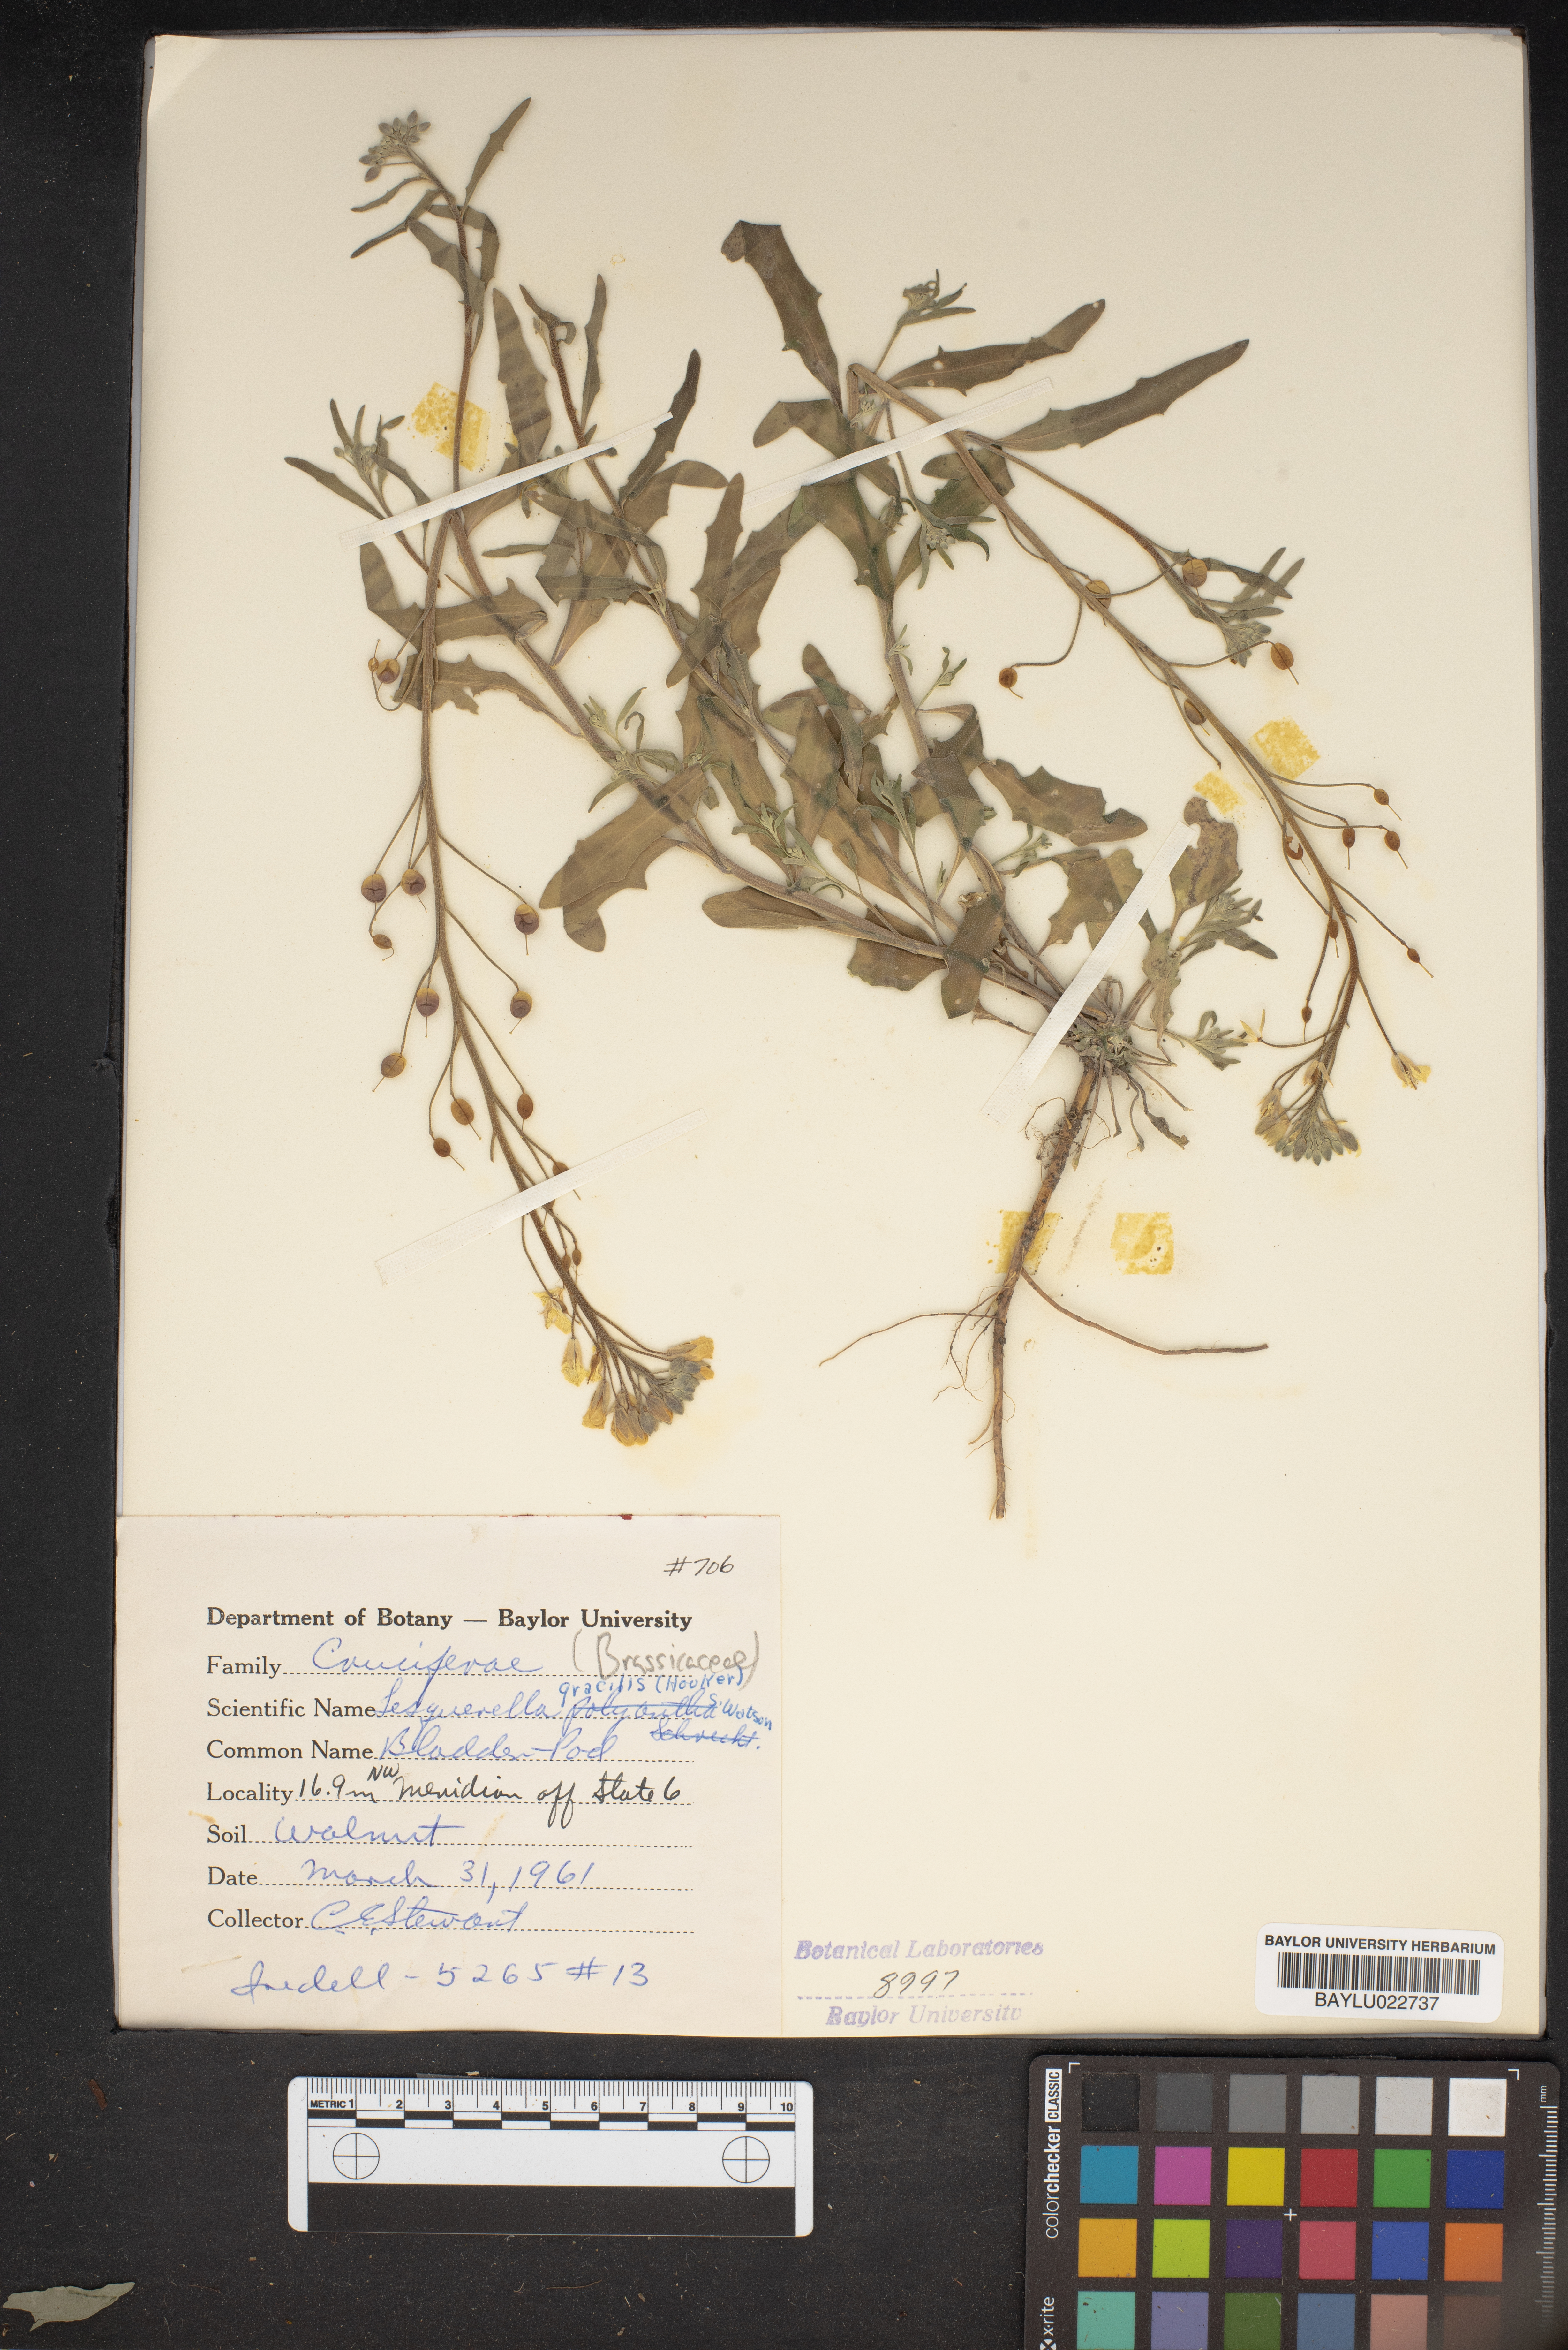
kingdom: Plantae
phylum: Tracheophyta
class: Magnoliopsida
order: Brassicales
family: Brassicaceae
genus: Physaria
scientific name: Physaria gracilis
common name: Spreading bladderpod
